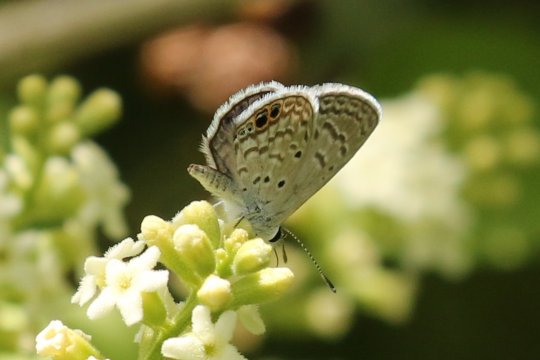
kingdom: Animalia
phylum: Arthropoda
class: Insecta
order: Lepidoptera
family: Lycaenidae
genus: Hemiargus
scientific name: Hemiargus ceraunus
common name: Ceraunus Blue
